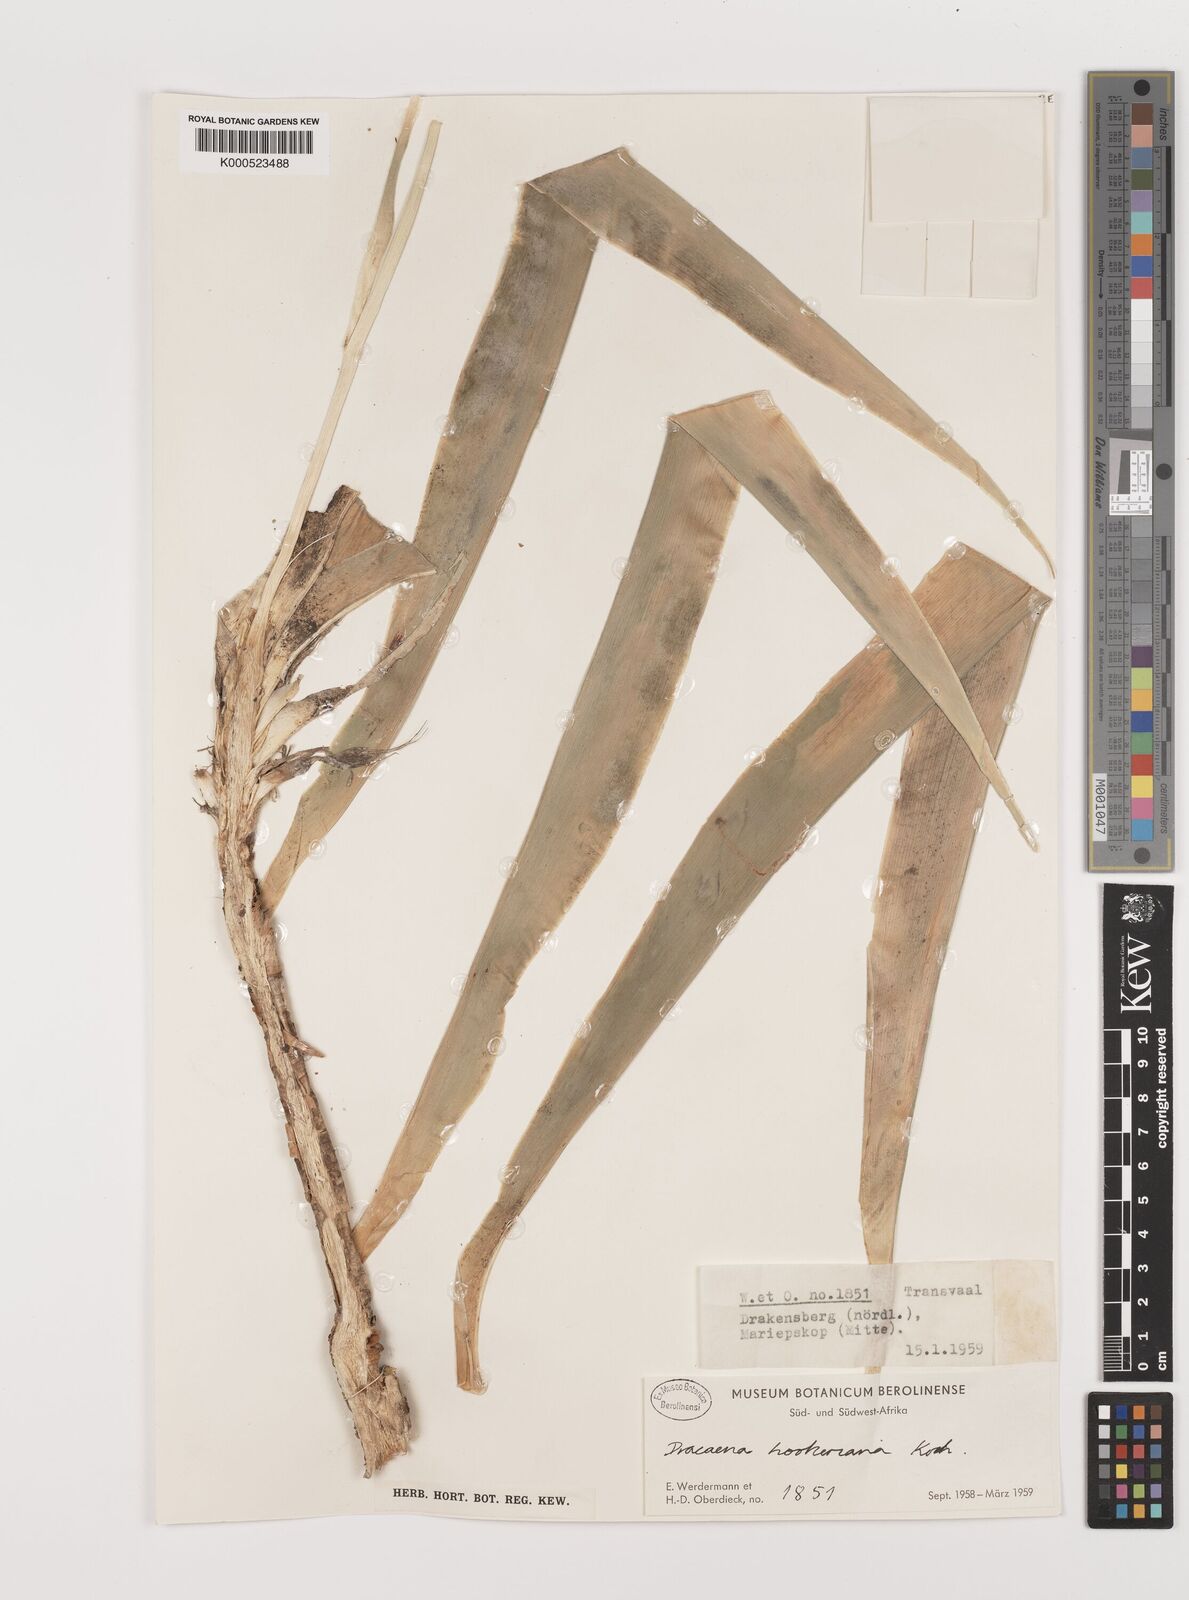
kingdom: Plantae
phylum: Tracheophyta
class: Liliopsida
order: Asparagales
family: Asparagaceae
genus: Dracaena
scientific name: Dracaena aletriformis
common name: Large-leaved dragon tree
